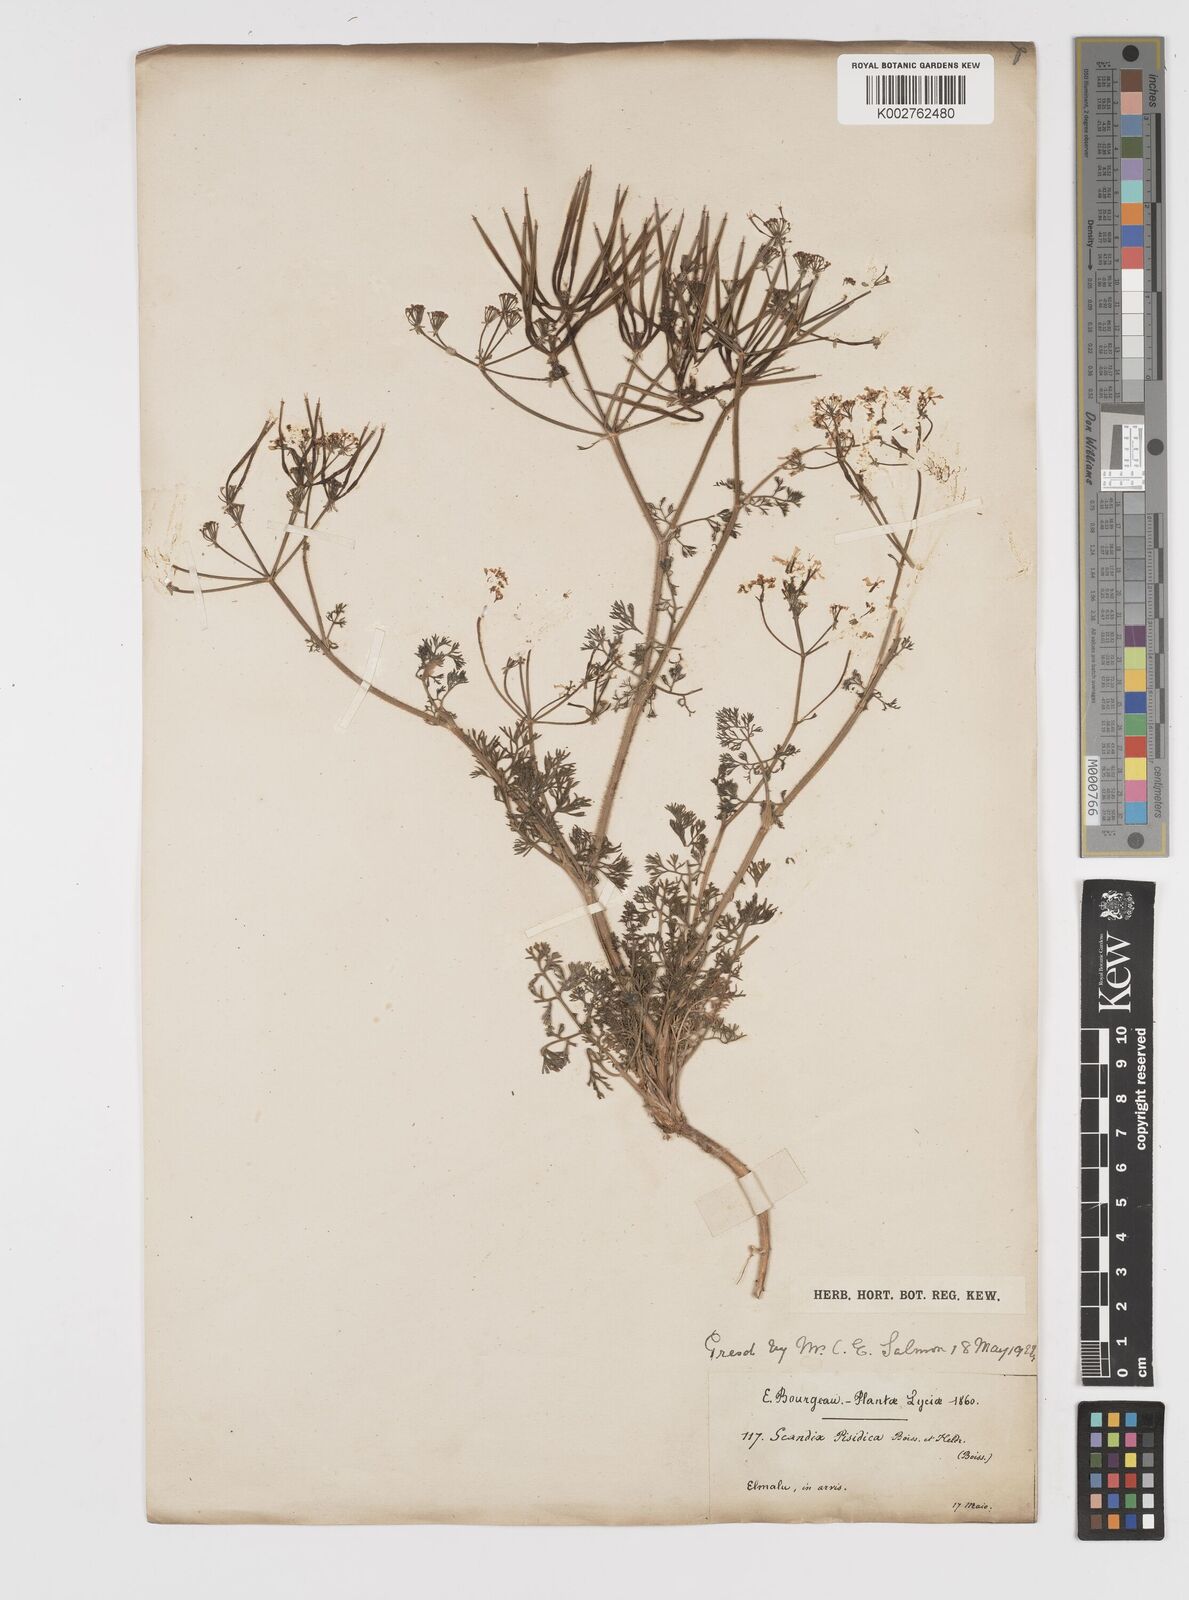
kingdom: Plantae
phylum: Tracheophyta
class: Magnoliopsida
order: Apiales
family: Apiaceae
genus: Scandix
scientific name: Scandix iberica
